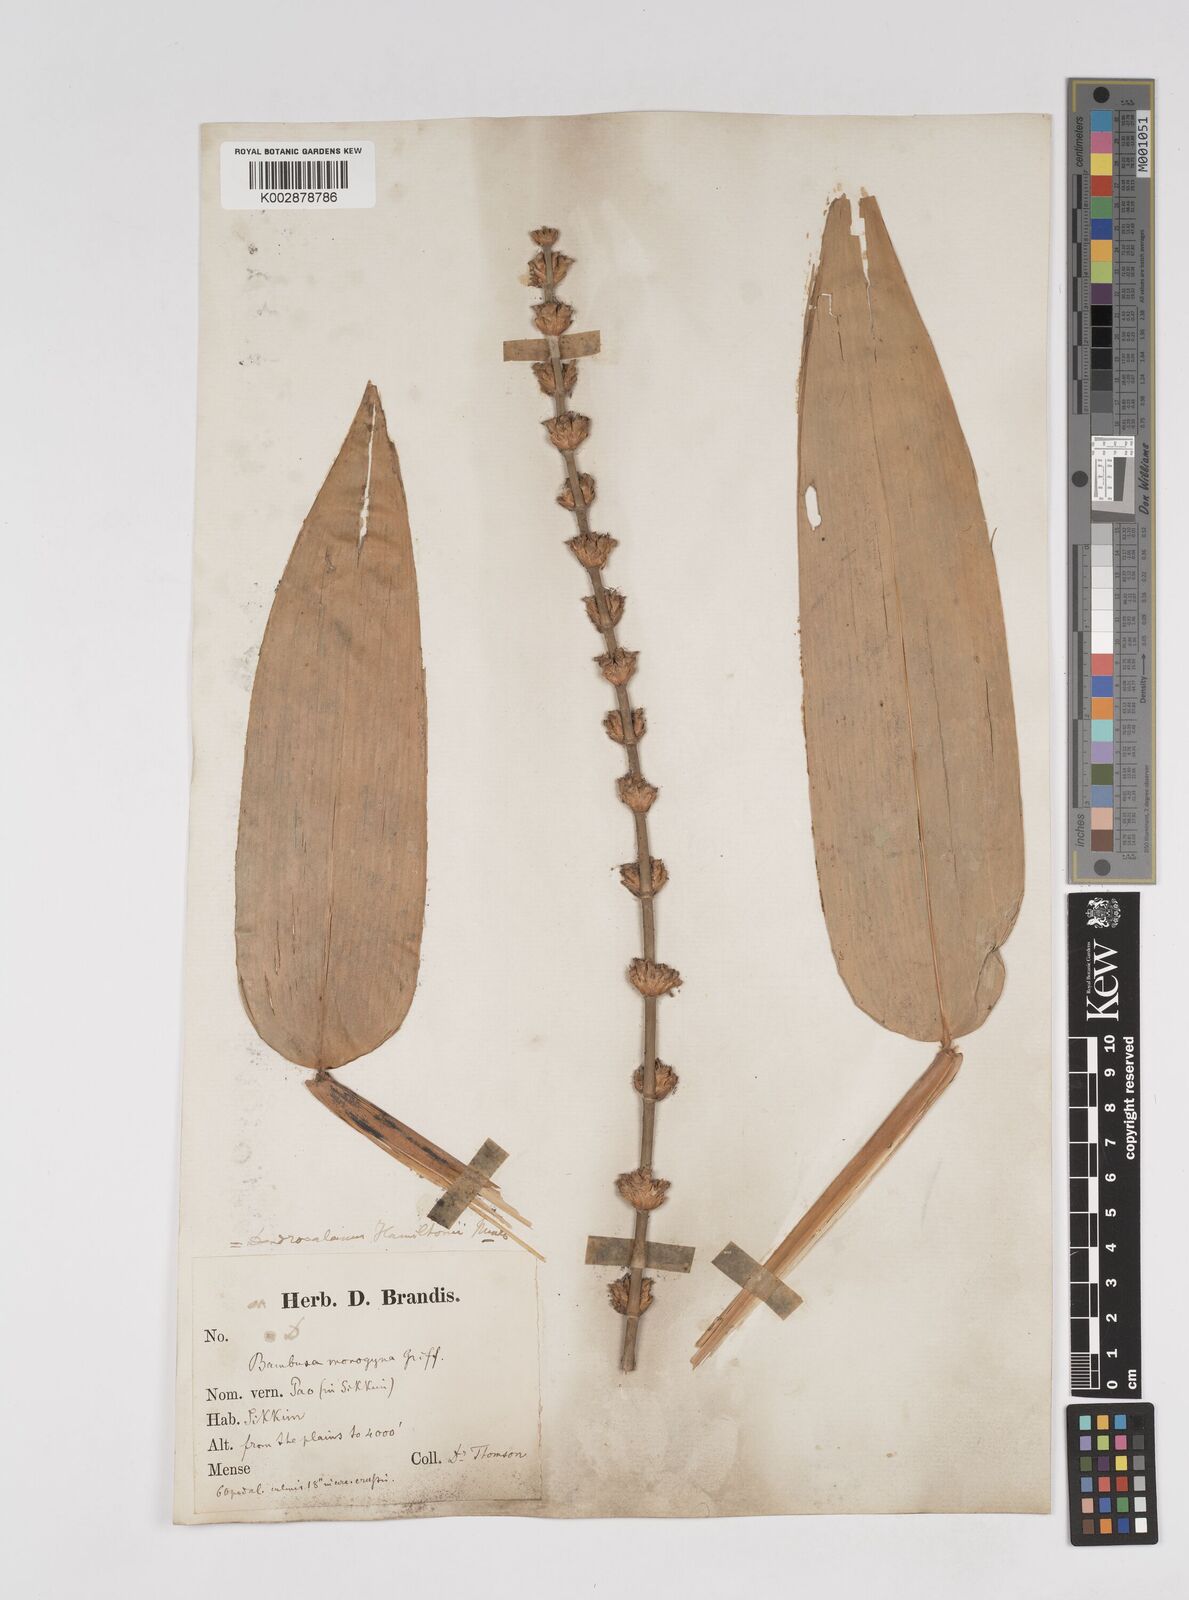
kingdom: Plantae
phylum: Tracheophyta
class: Liliopsida
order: Poales
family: Poaceae
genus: Dendrocalamus
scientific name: Dendrocalamus hamiltonii
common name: Tama bamboo
